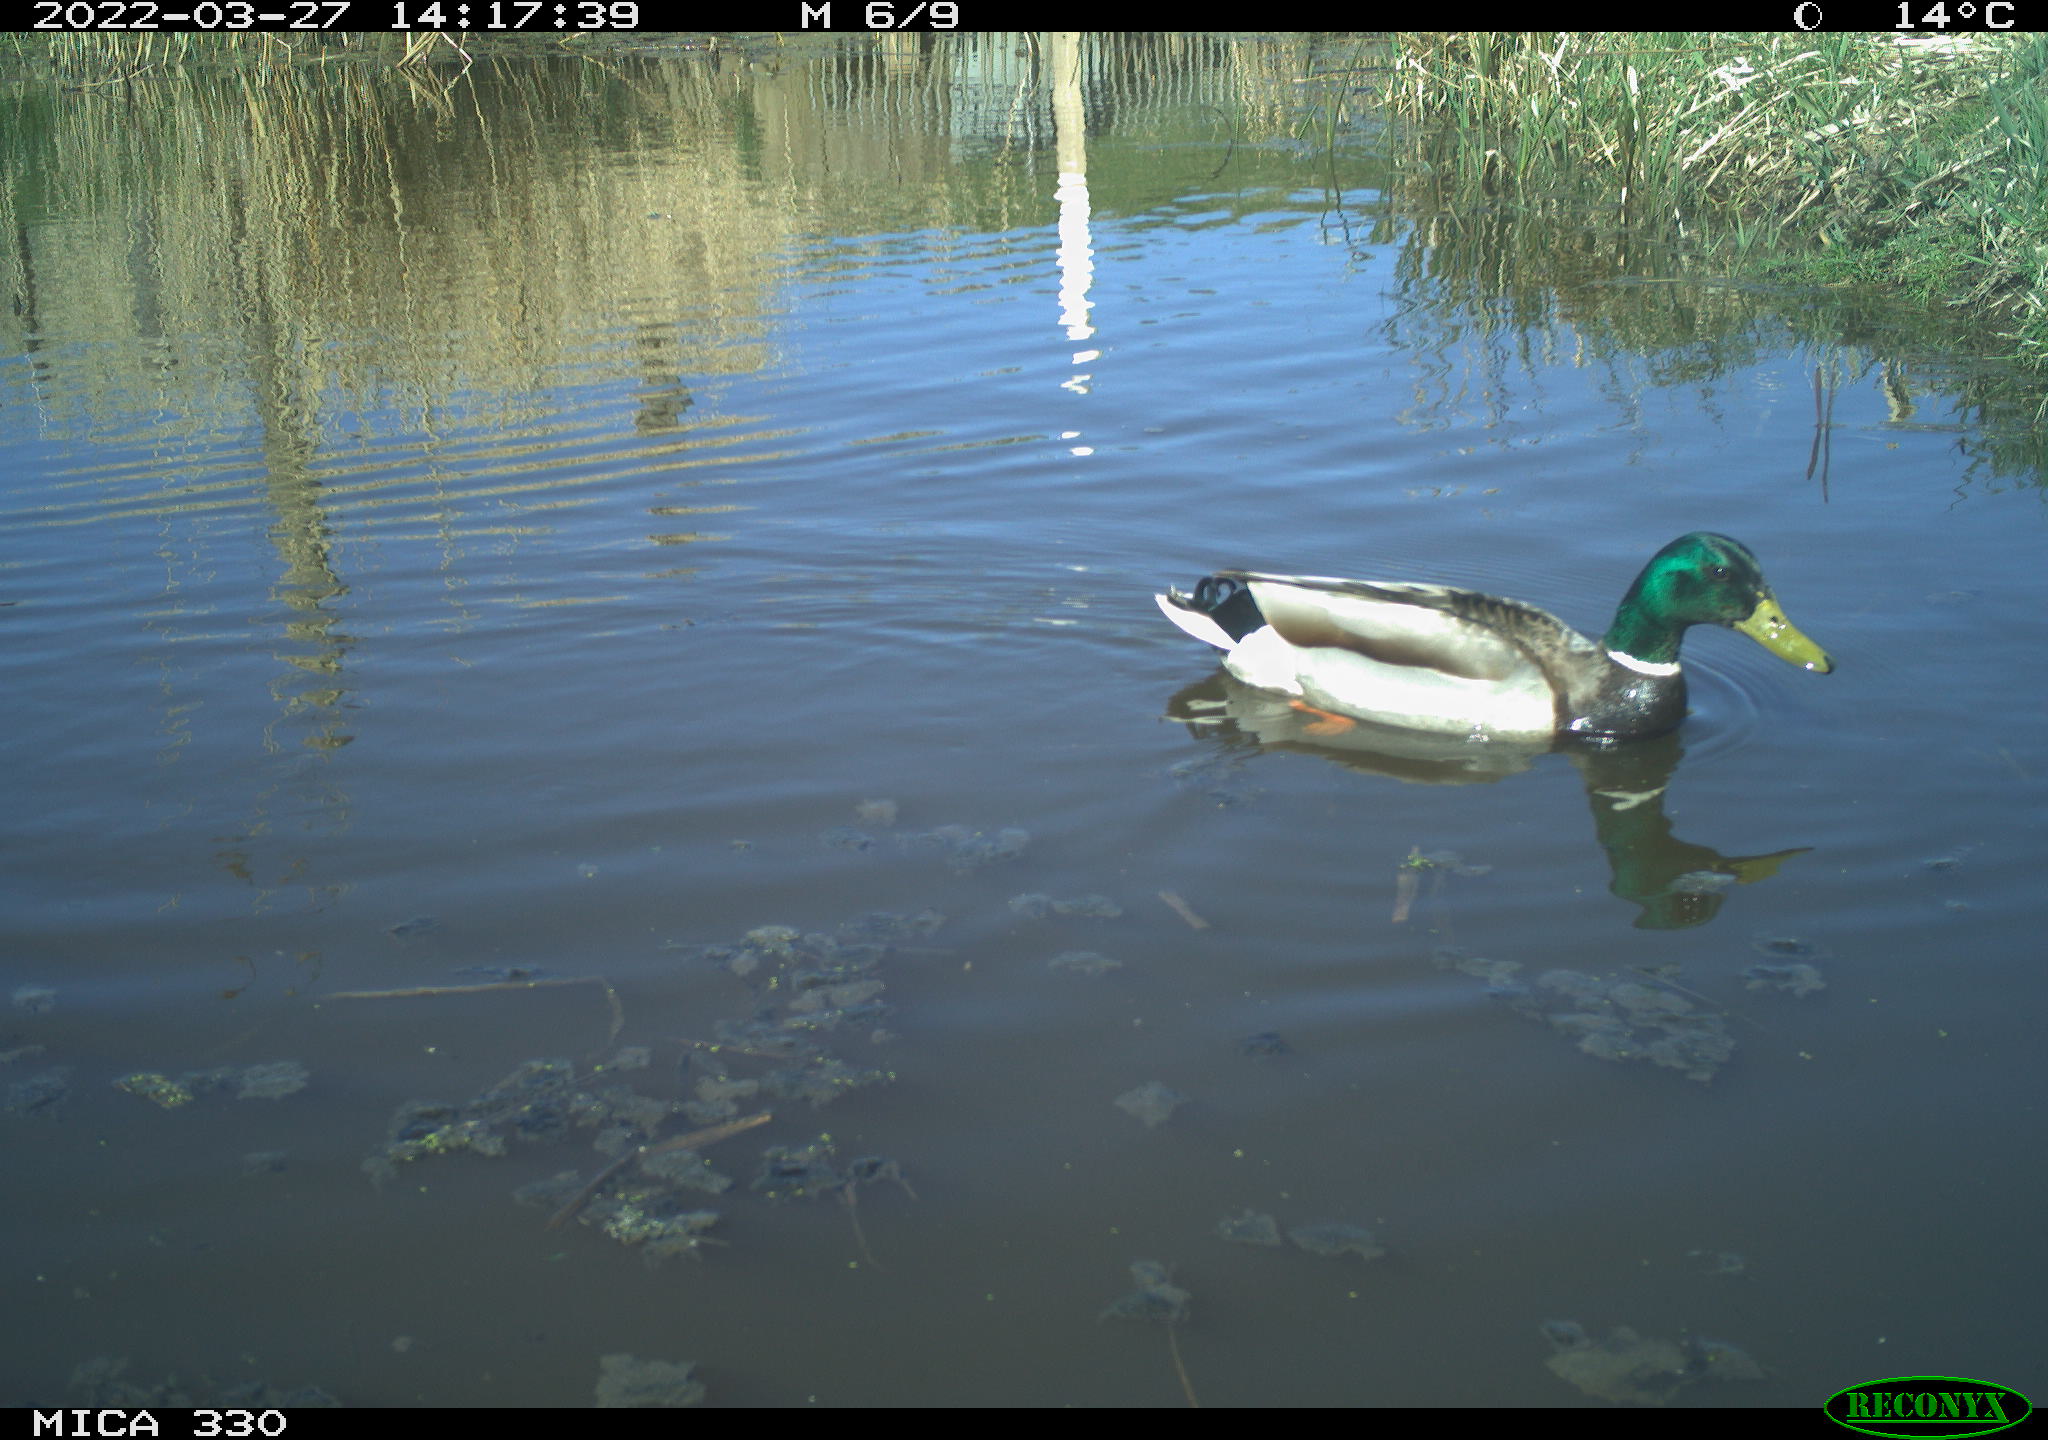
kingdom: Animalia
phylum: Chordata
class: Aves
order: Anseriformes
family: Anatidae
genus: Anas
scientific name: Anas platyrhynchos
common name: Mallard
